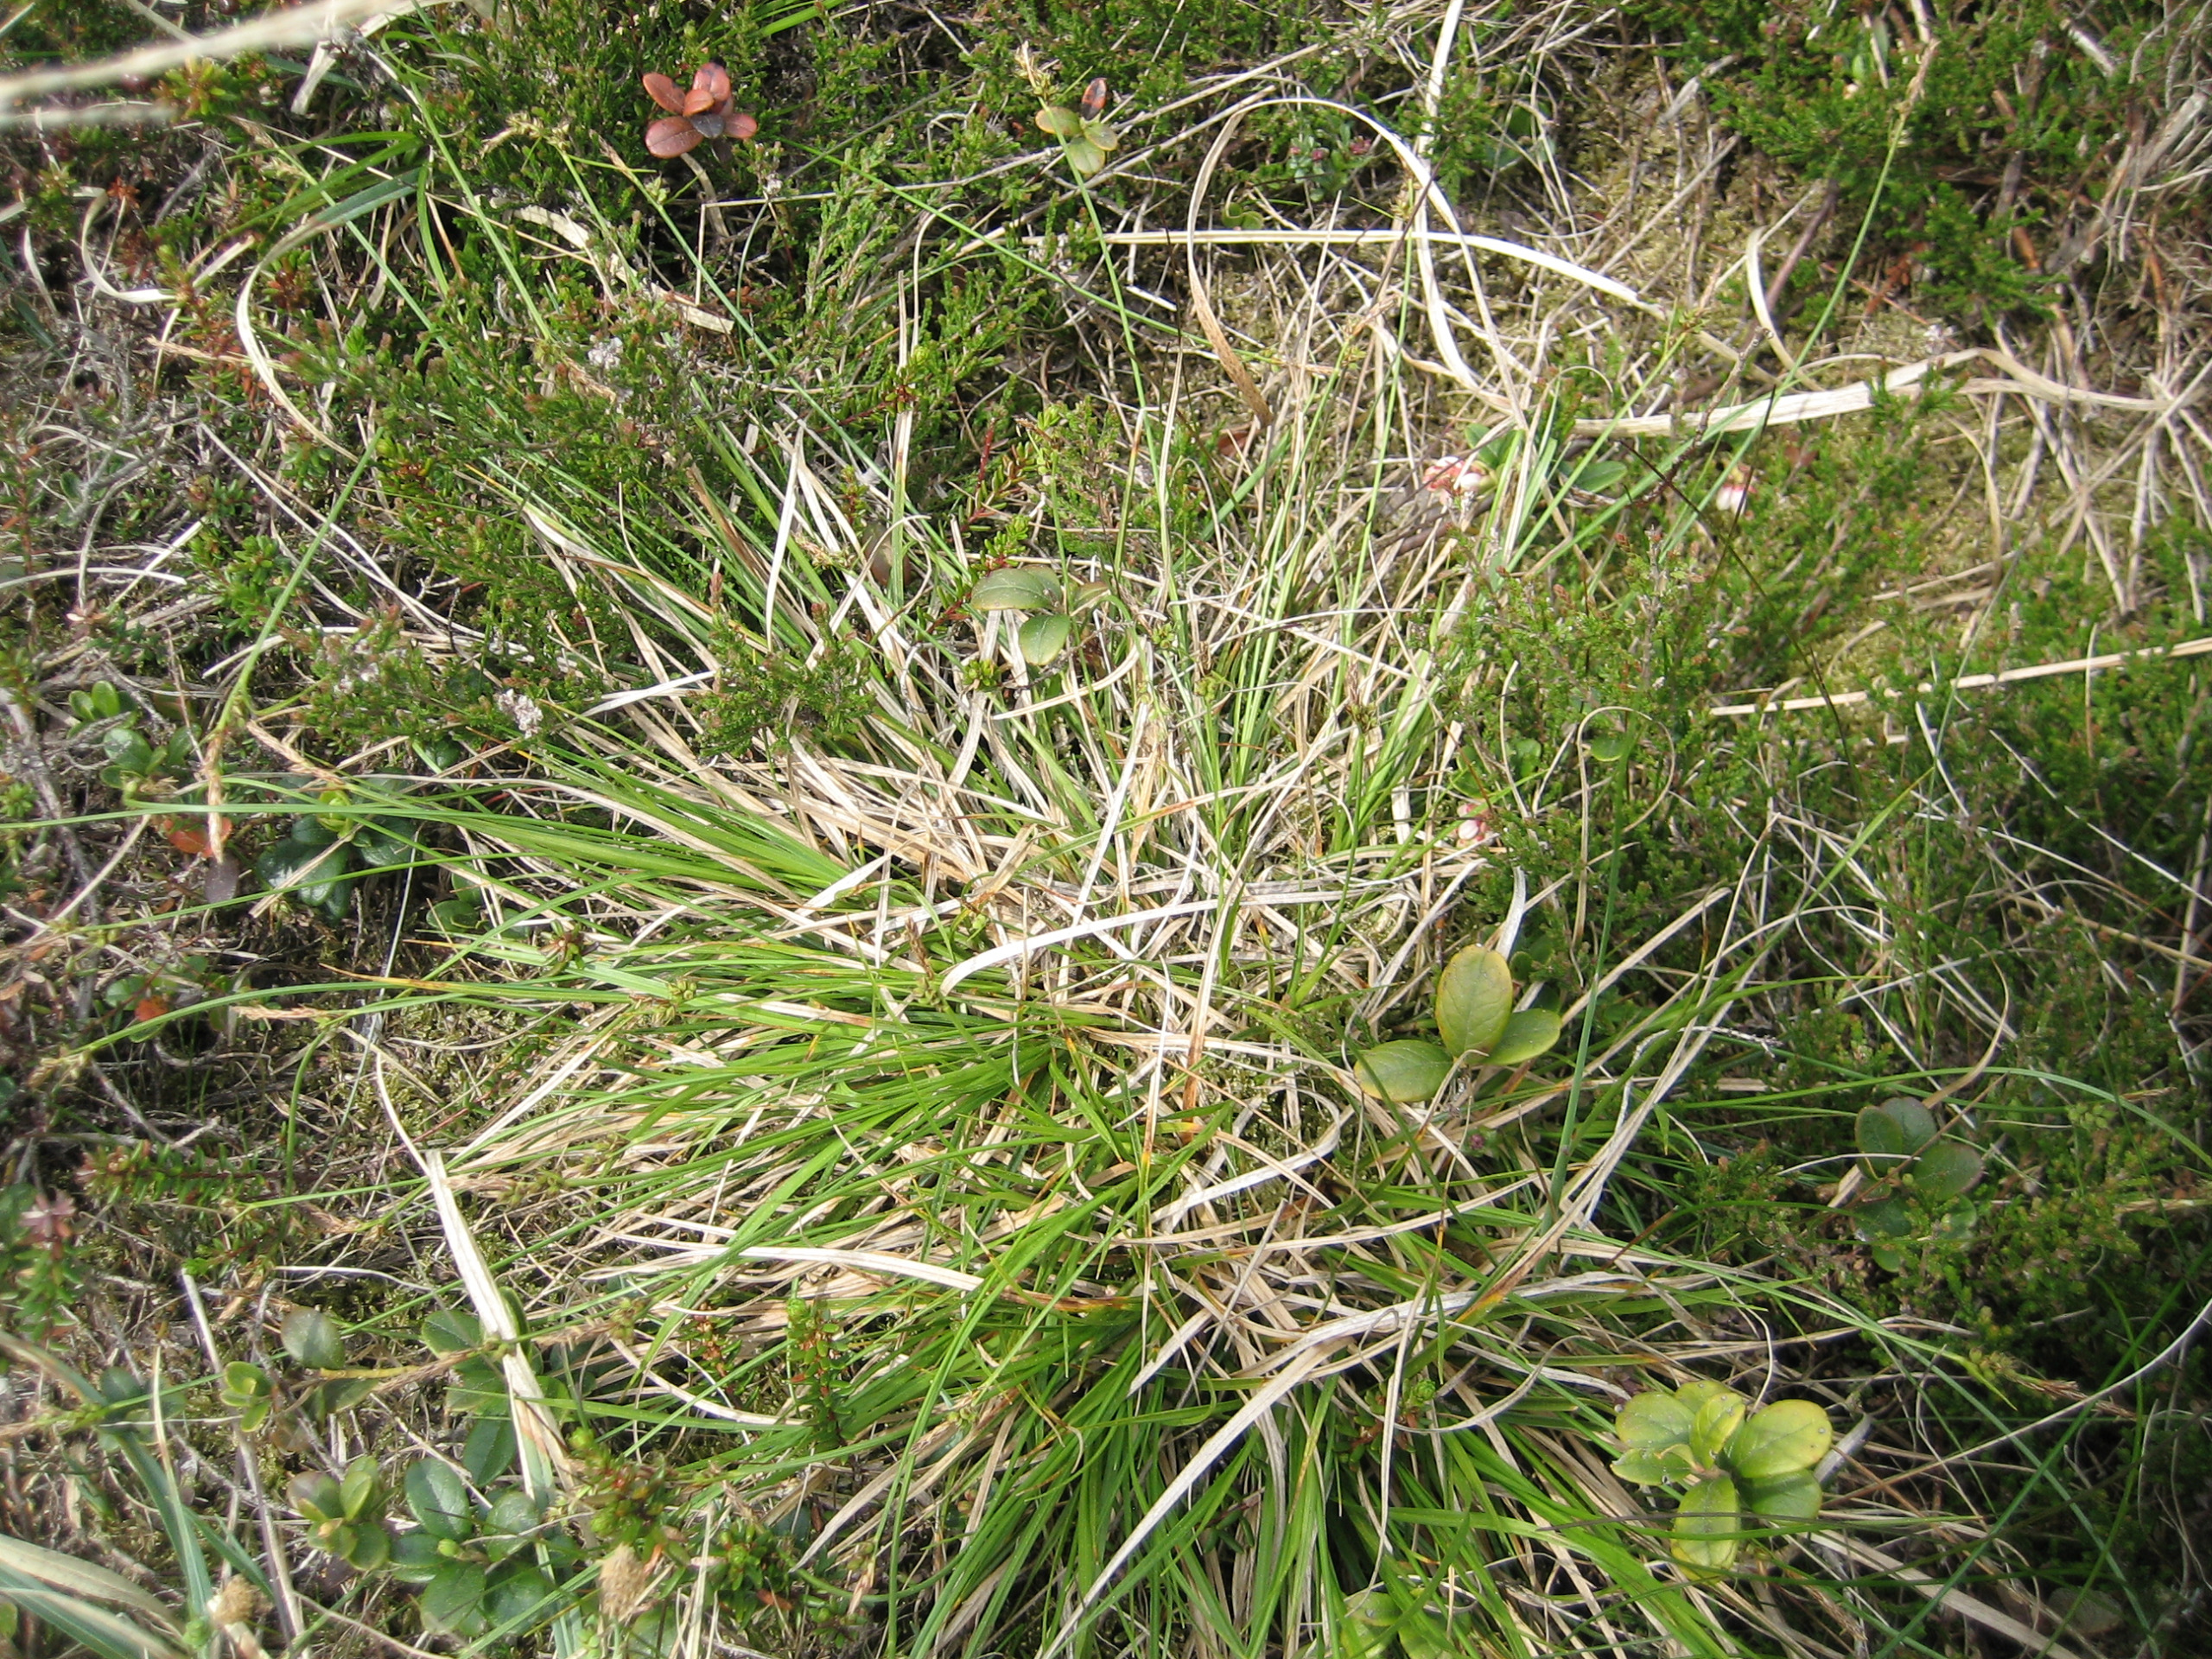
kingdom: Plantae
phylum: Tracheophyta
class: Liliopsida
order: Poales
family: Cyperaceae
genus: Carex
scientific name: Carex pilulifera
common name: Pille-star
